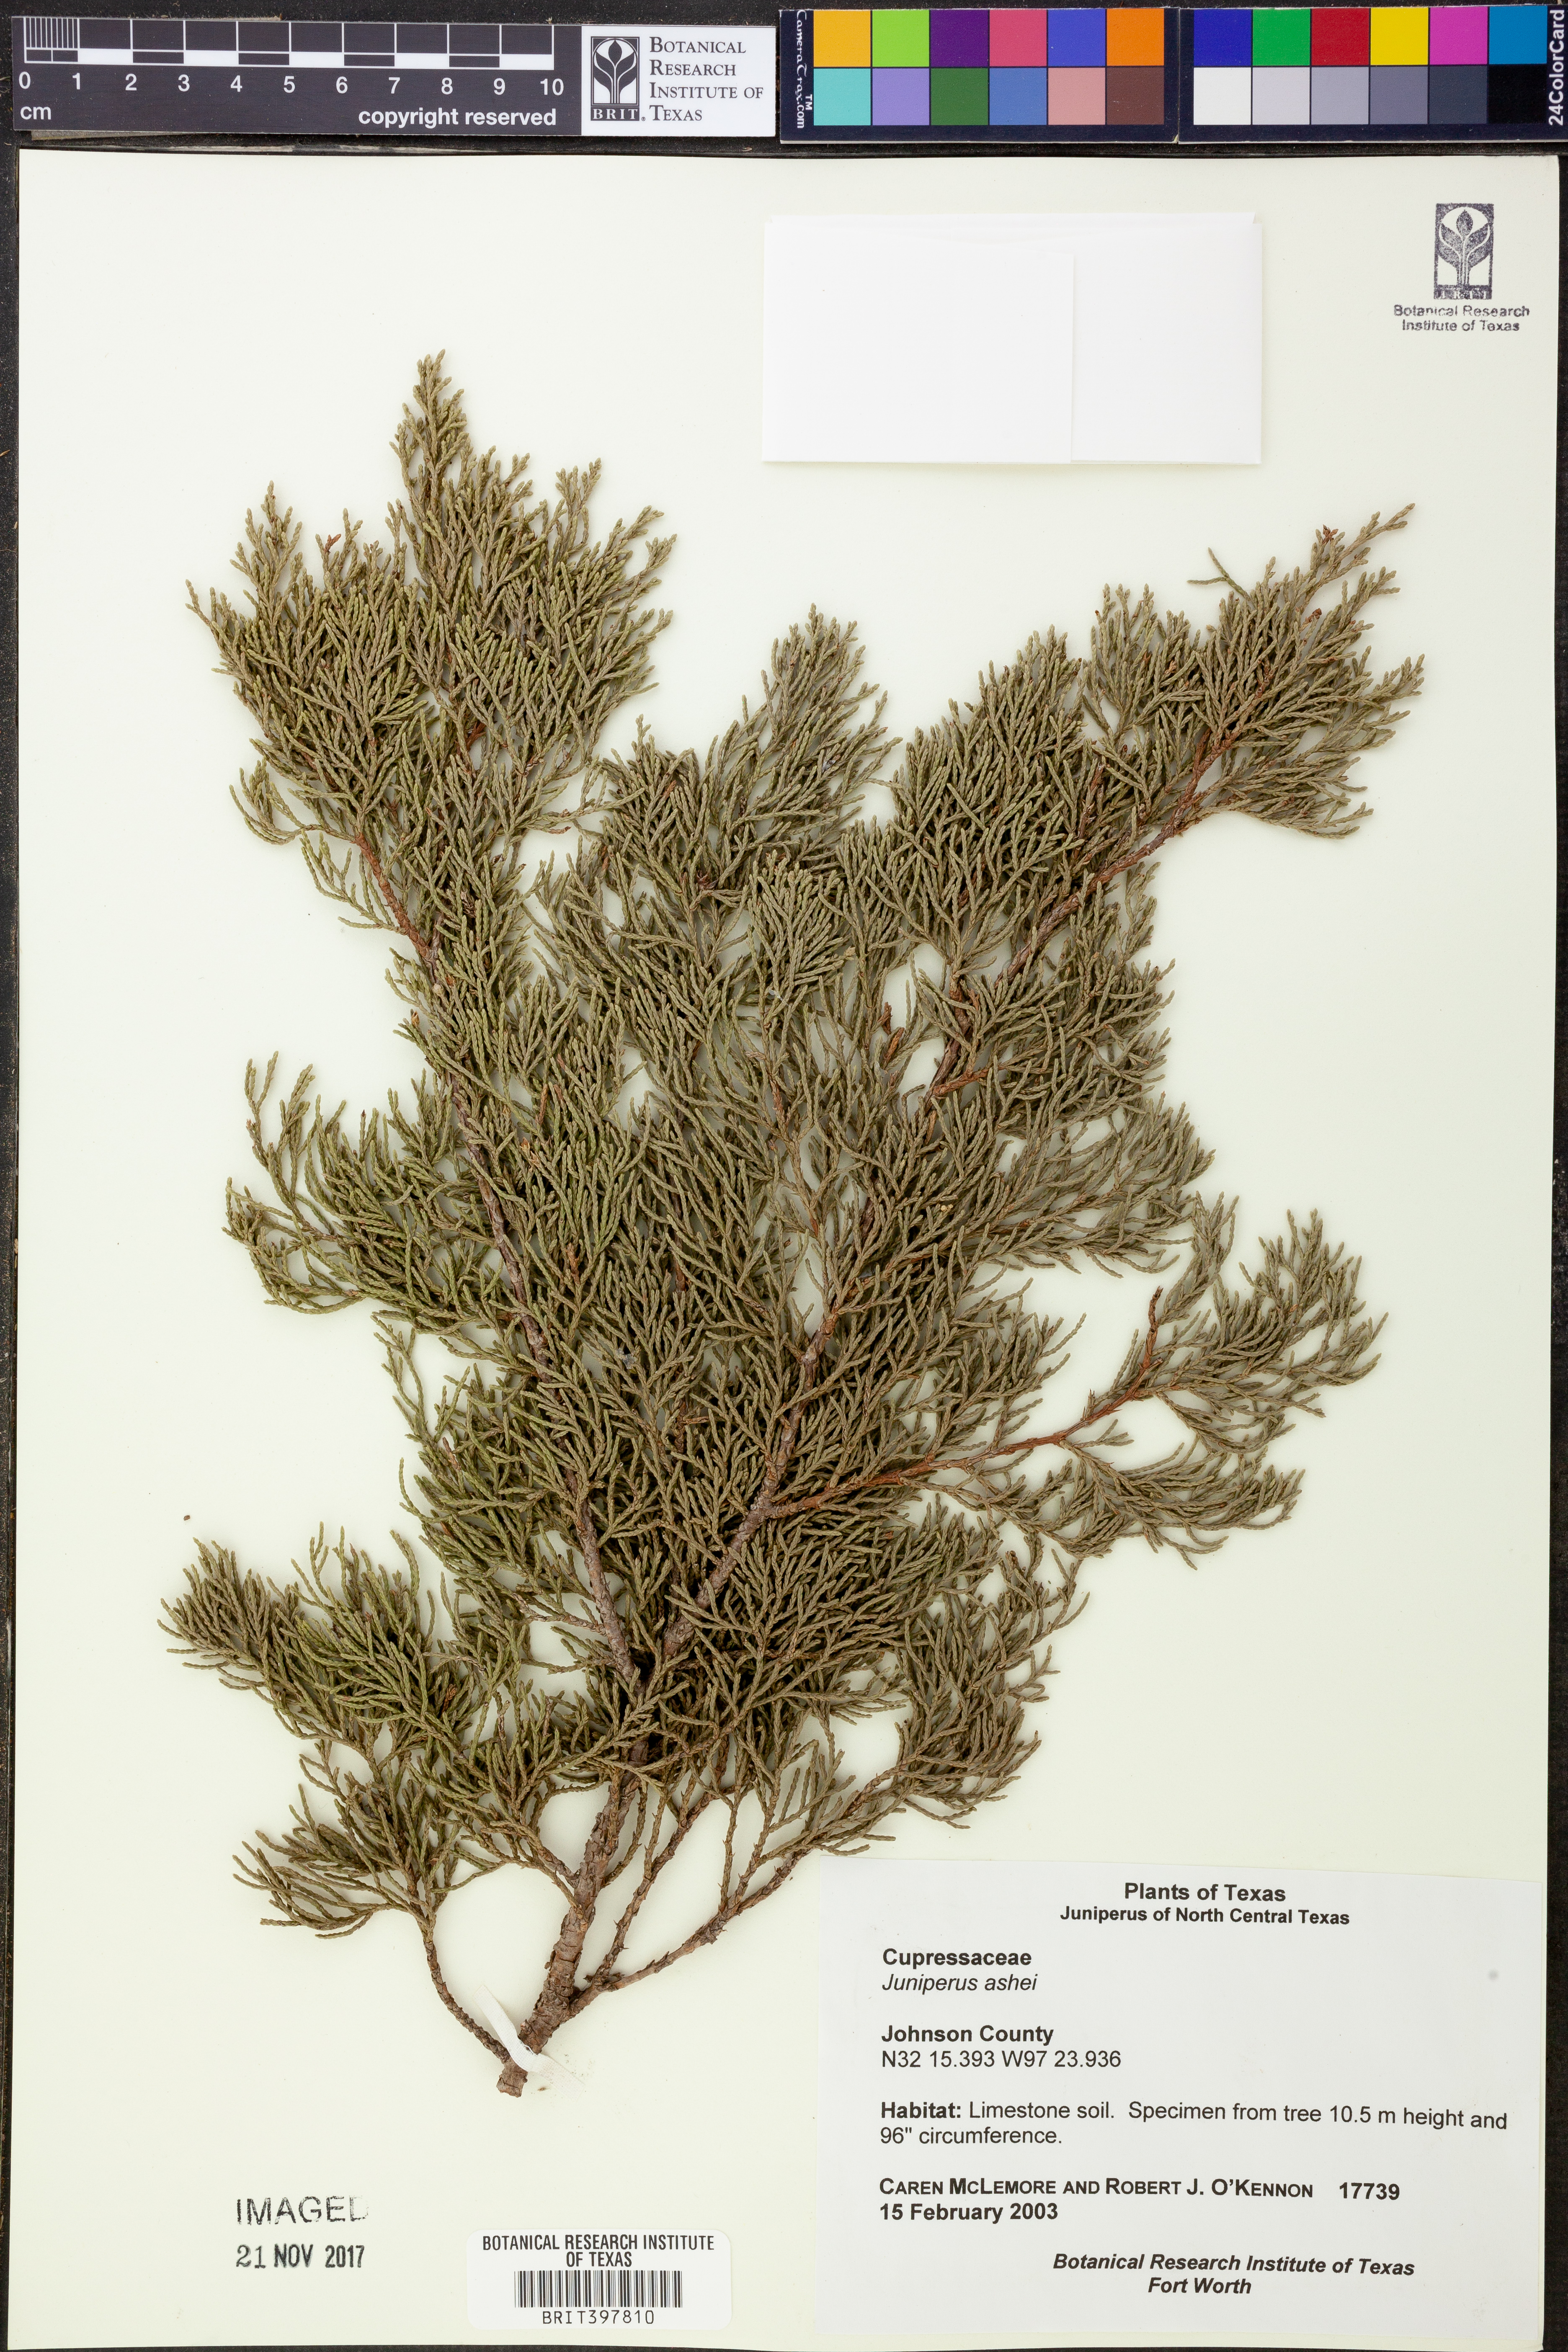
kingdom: Plantae
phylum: Tracheophyta
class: Pinopsida
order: Pinales
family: Cupressaceae
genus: Juniperus
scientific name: Juniperus ashei
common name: Mexican juniper
